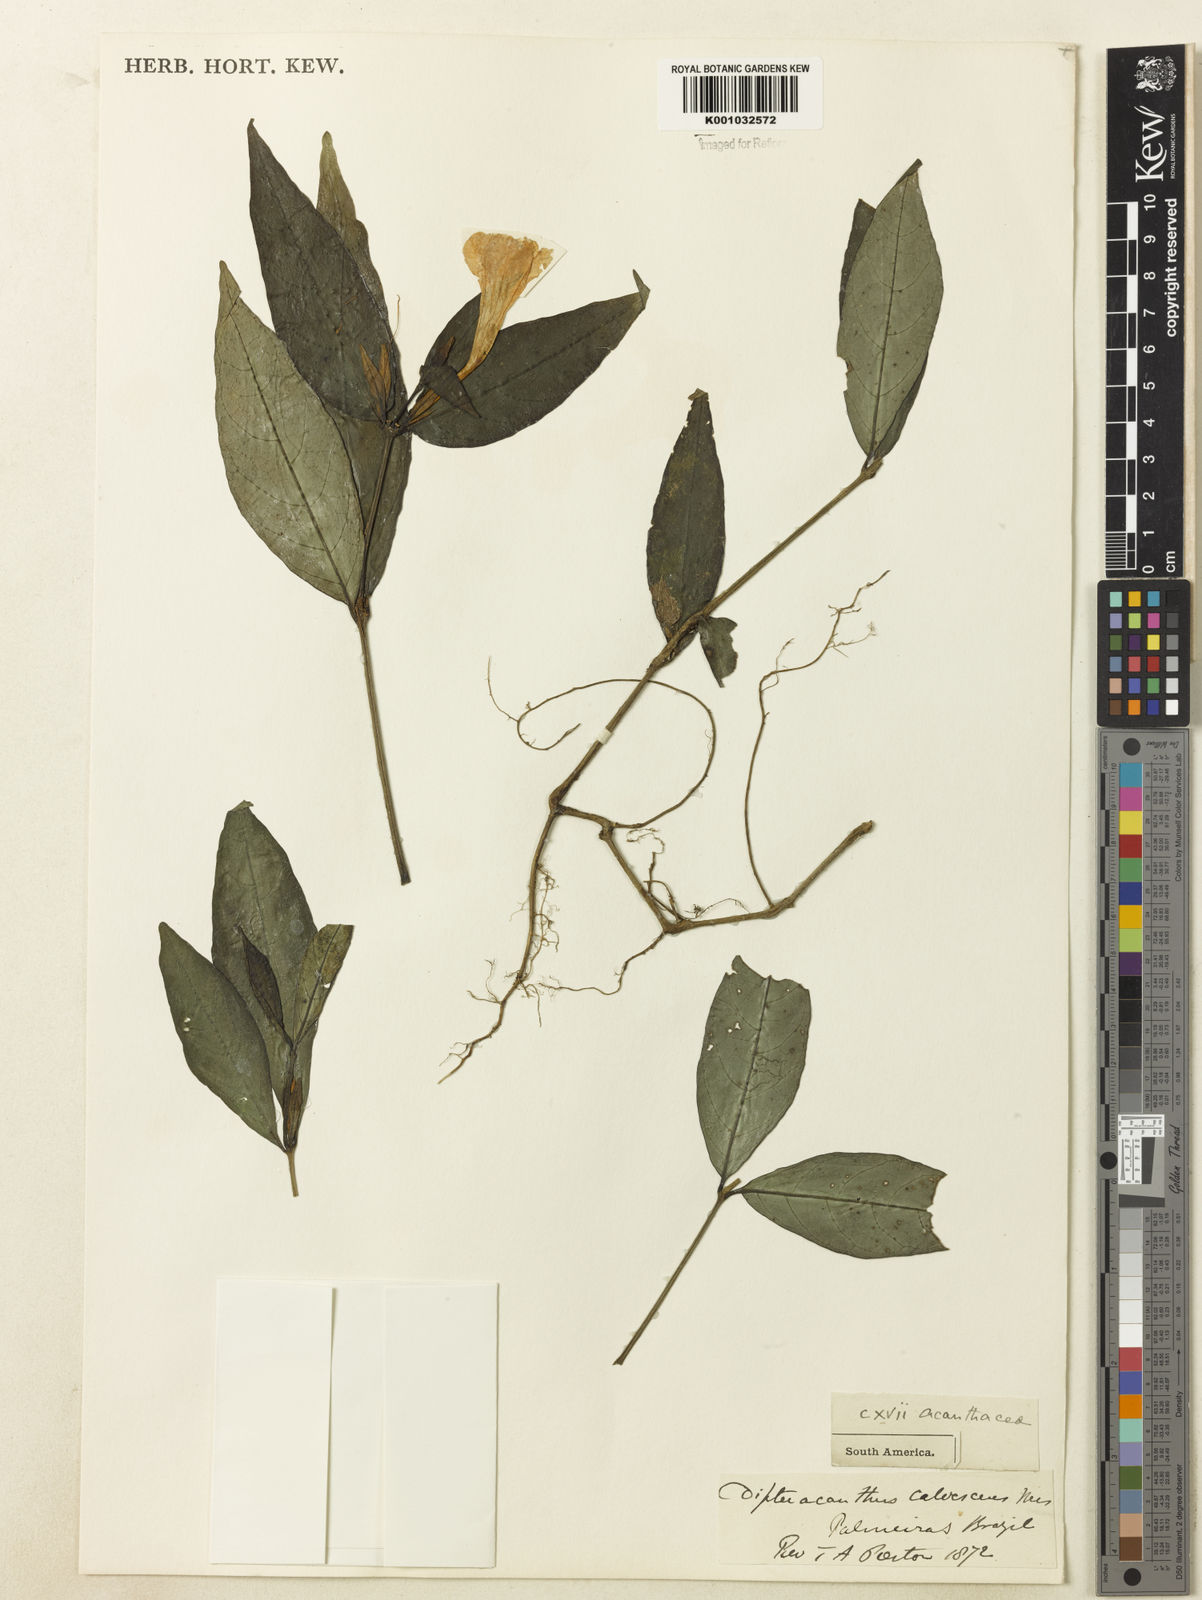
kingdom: Plantae
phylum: Tracheophyta
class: Magnoliopsida
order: Lamiales
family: Acanthaceae
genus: Ruellia
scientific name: Ruellia solitaria
